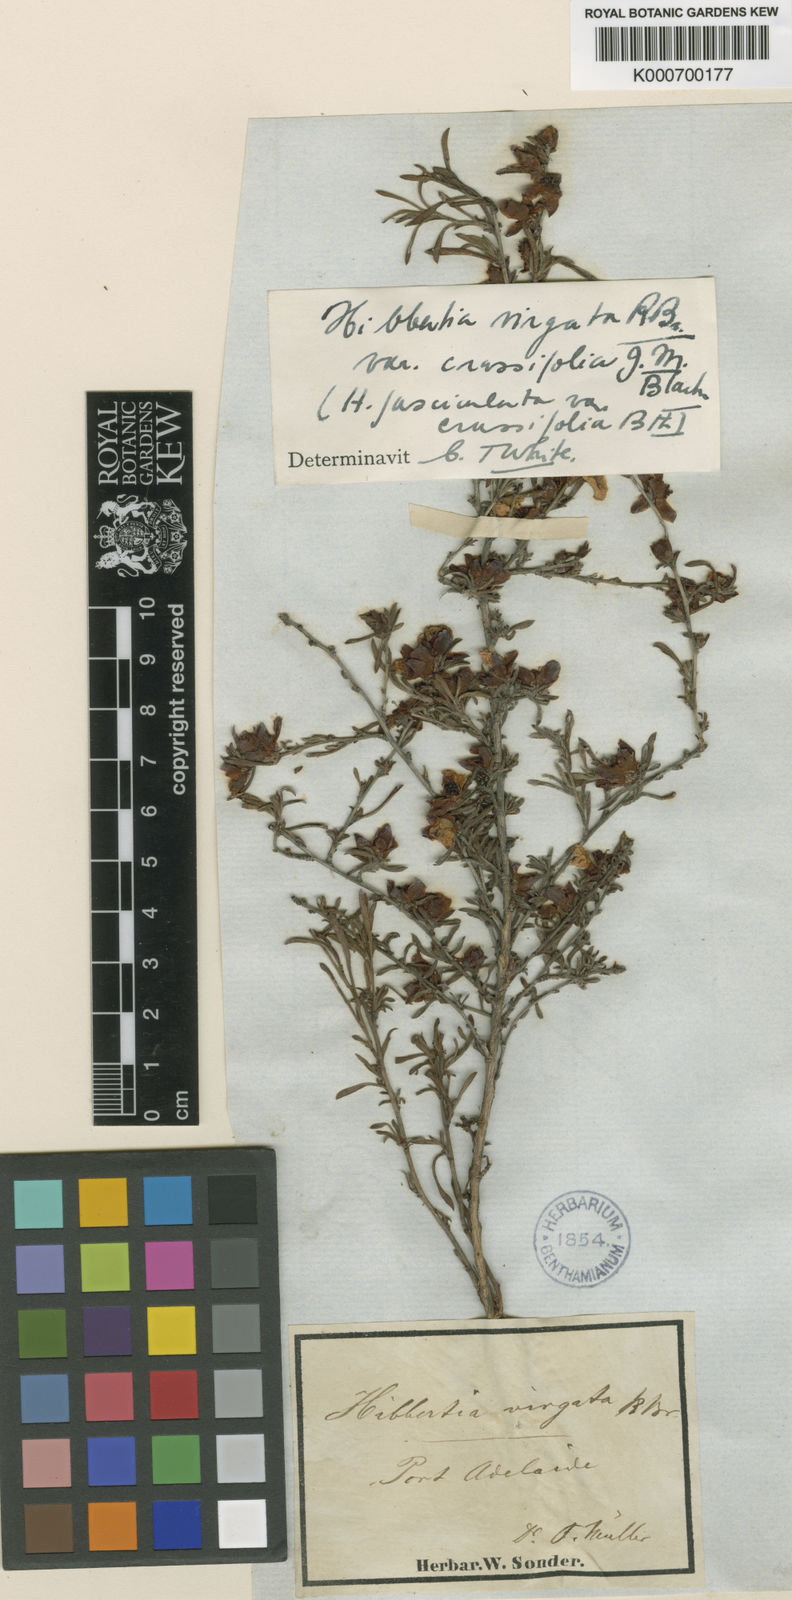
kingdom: Plantae
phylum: Tracheophyta
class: Magnoliopsida
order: Dilleniales
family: Dilleniaceae
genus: Hibbertia
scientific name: Hibbertia virgata
